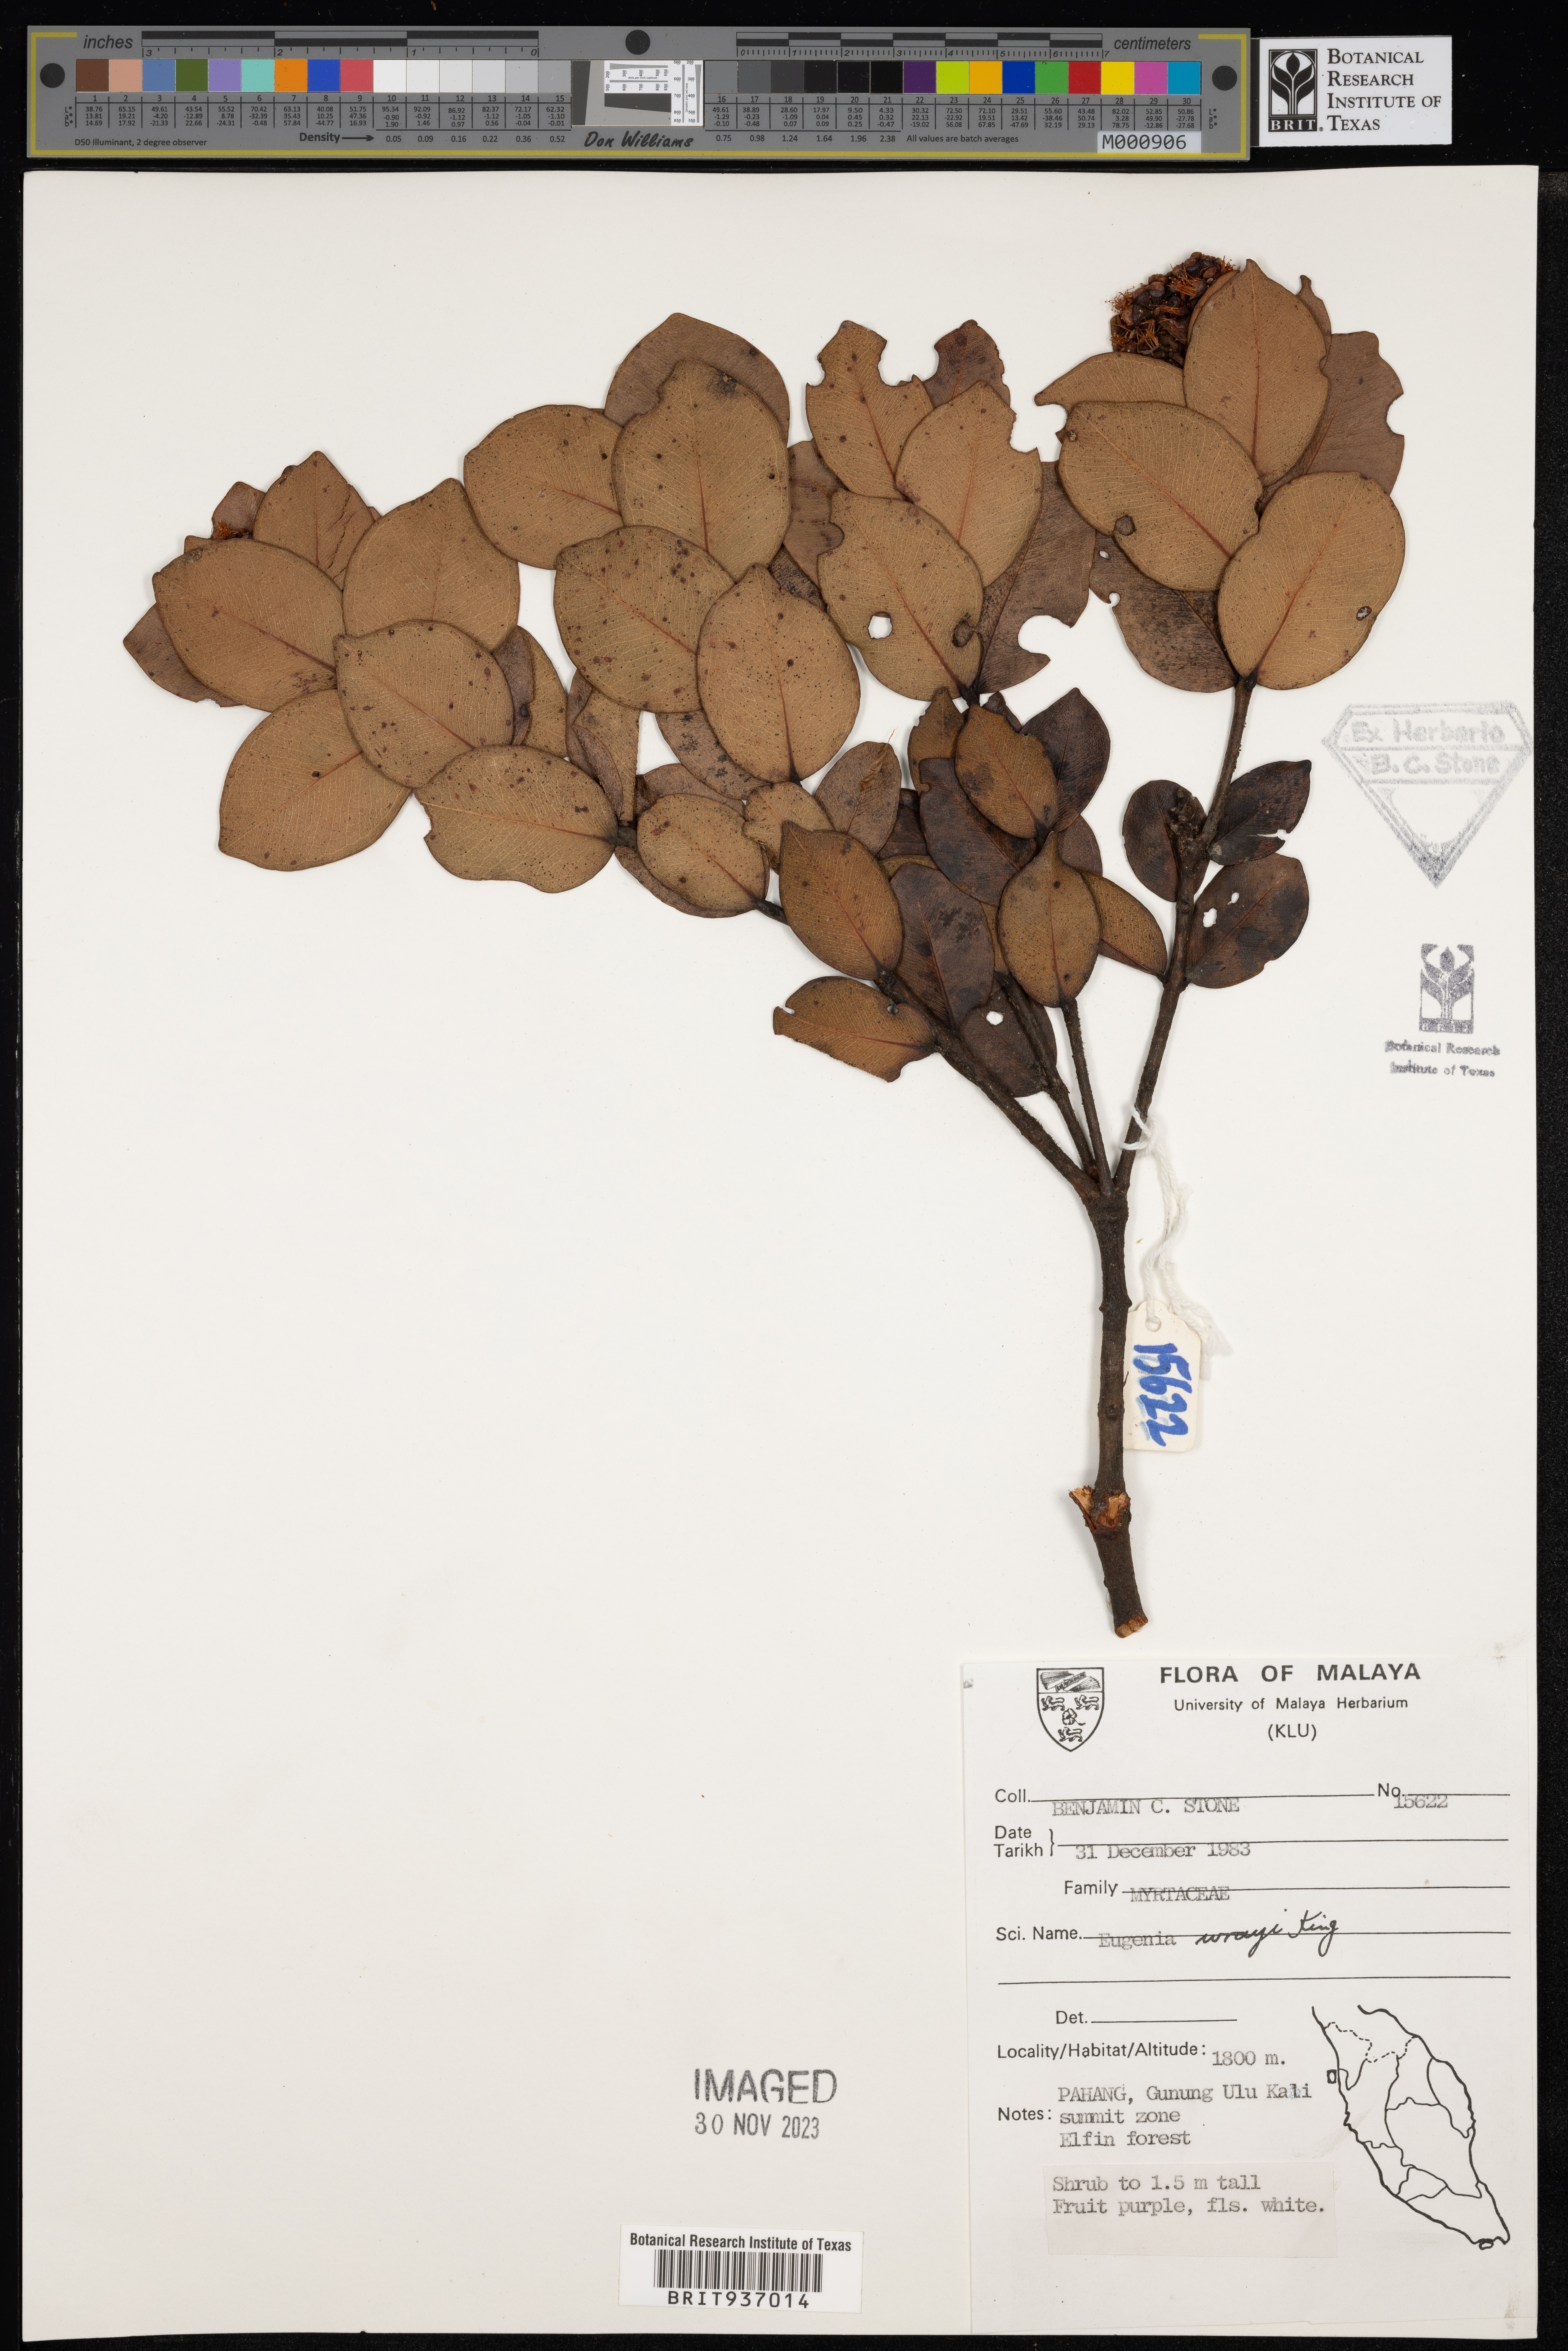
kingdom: Plantae
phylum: Tracheophyta
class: Magnoliopsida
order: Myrtales
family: Myrtaceae
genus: Eugenia
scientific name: Eugenia
